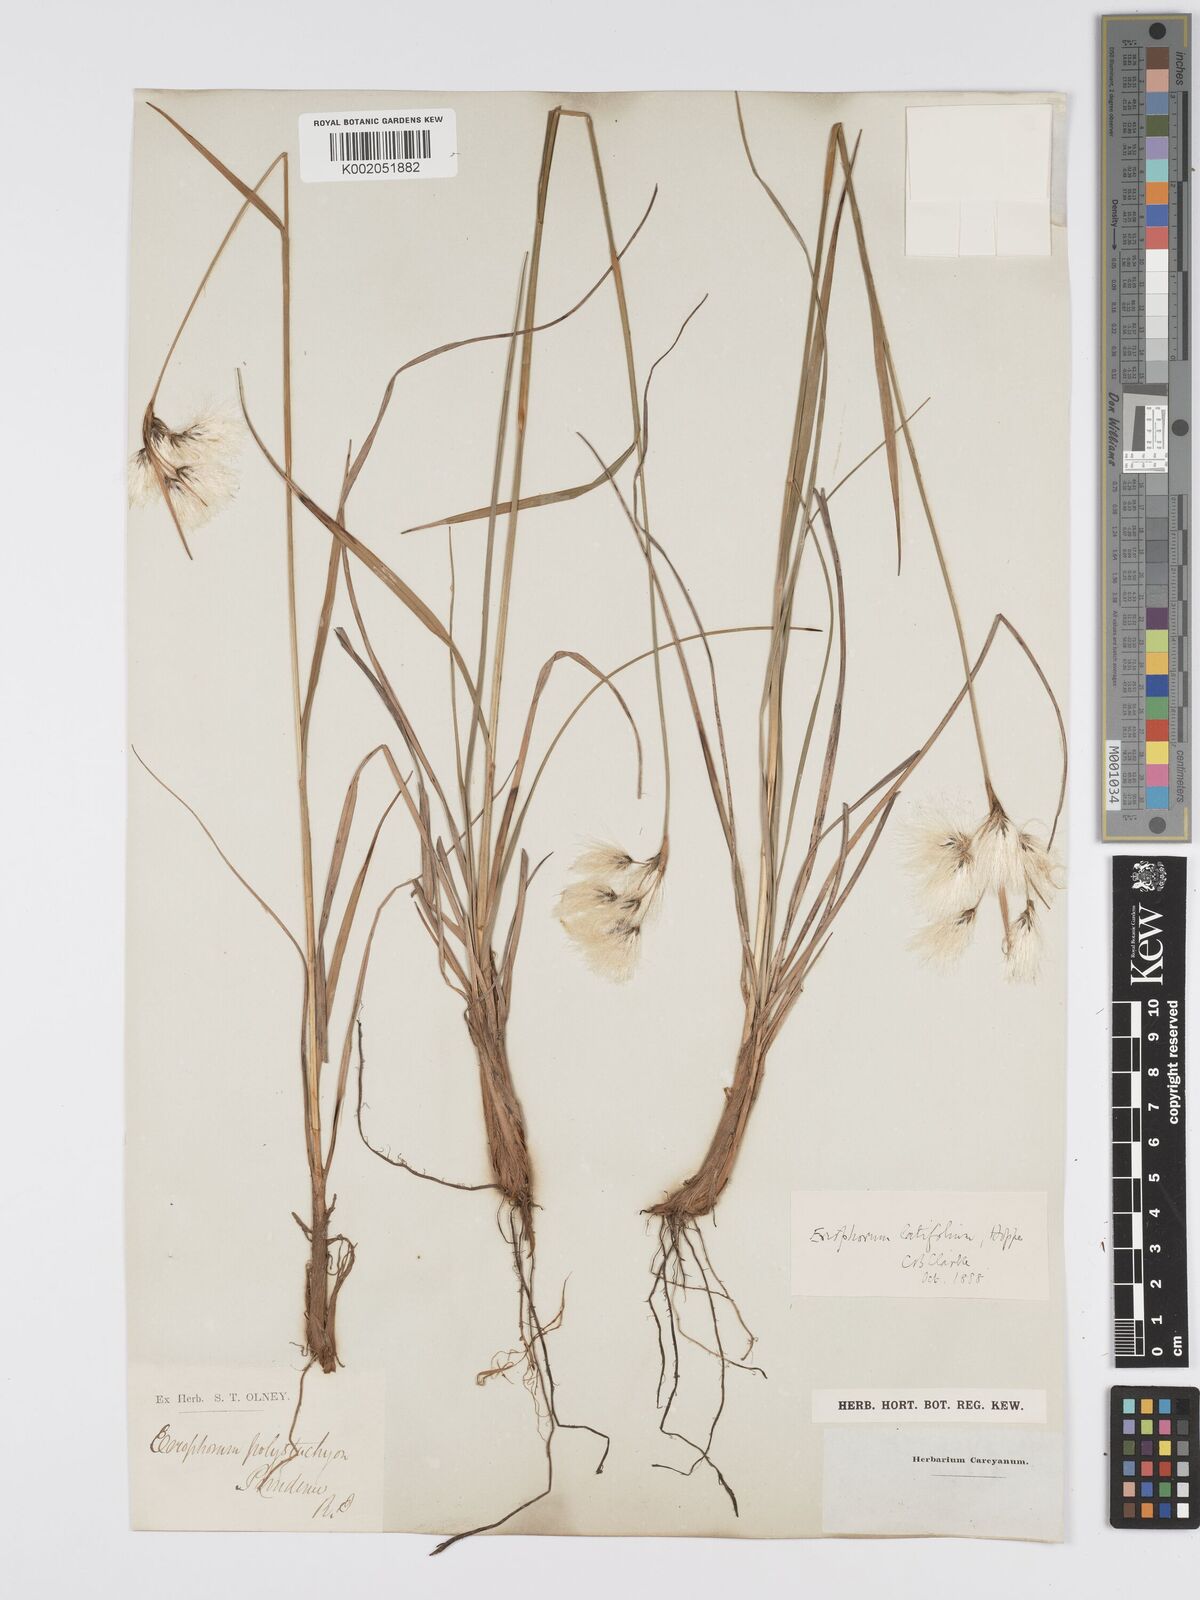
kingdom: Plantae
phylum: Tracheophyta
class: Liliopsida
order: Poales
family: Cyperaceae
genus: Eriophorum
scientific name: Eriophorum latifolium
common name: Broad-leaved cottongrass
